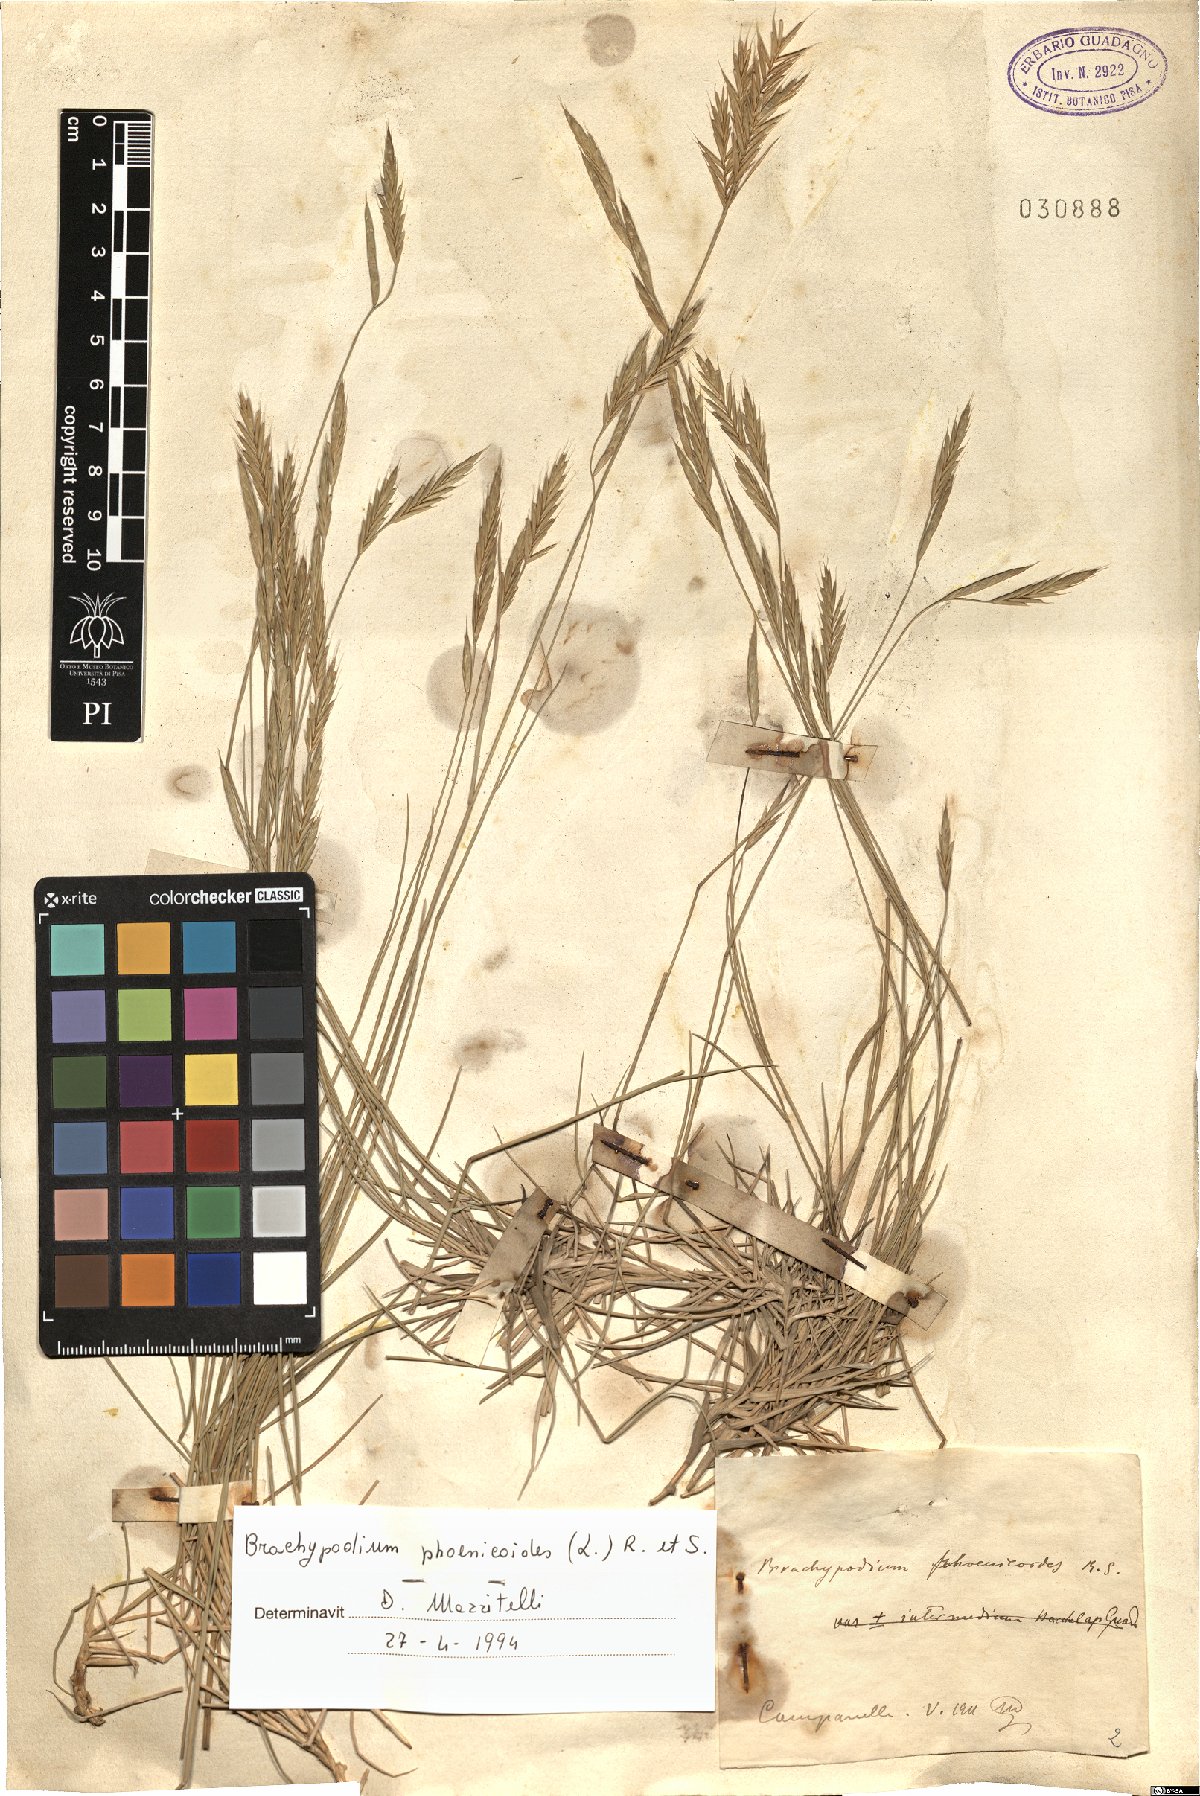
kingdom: Plantae
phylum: Tracheophyta
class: Liliopsida
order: Poales
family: Poaceae
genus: Brachypodium
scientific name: Brachypodium phoenicoides
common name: Thinleaf false brome
